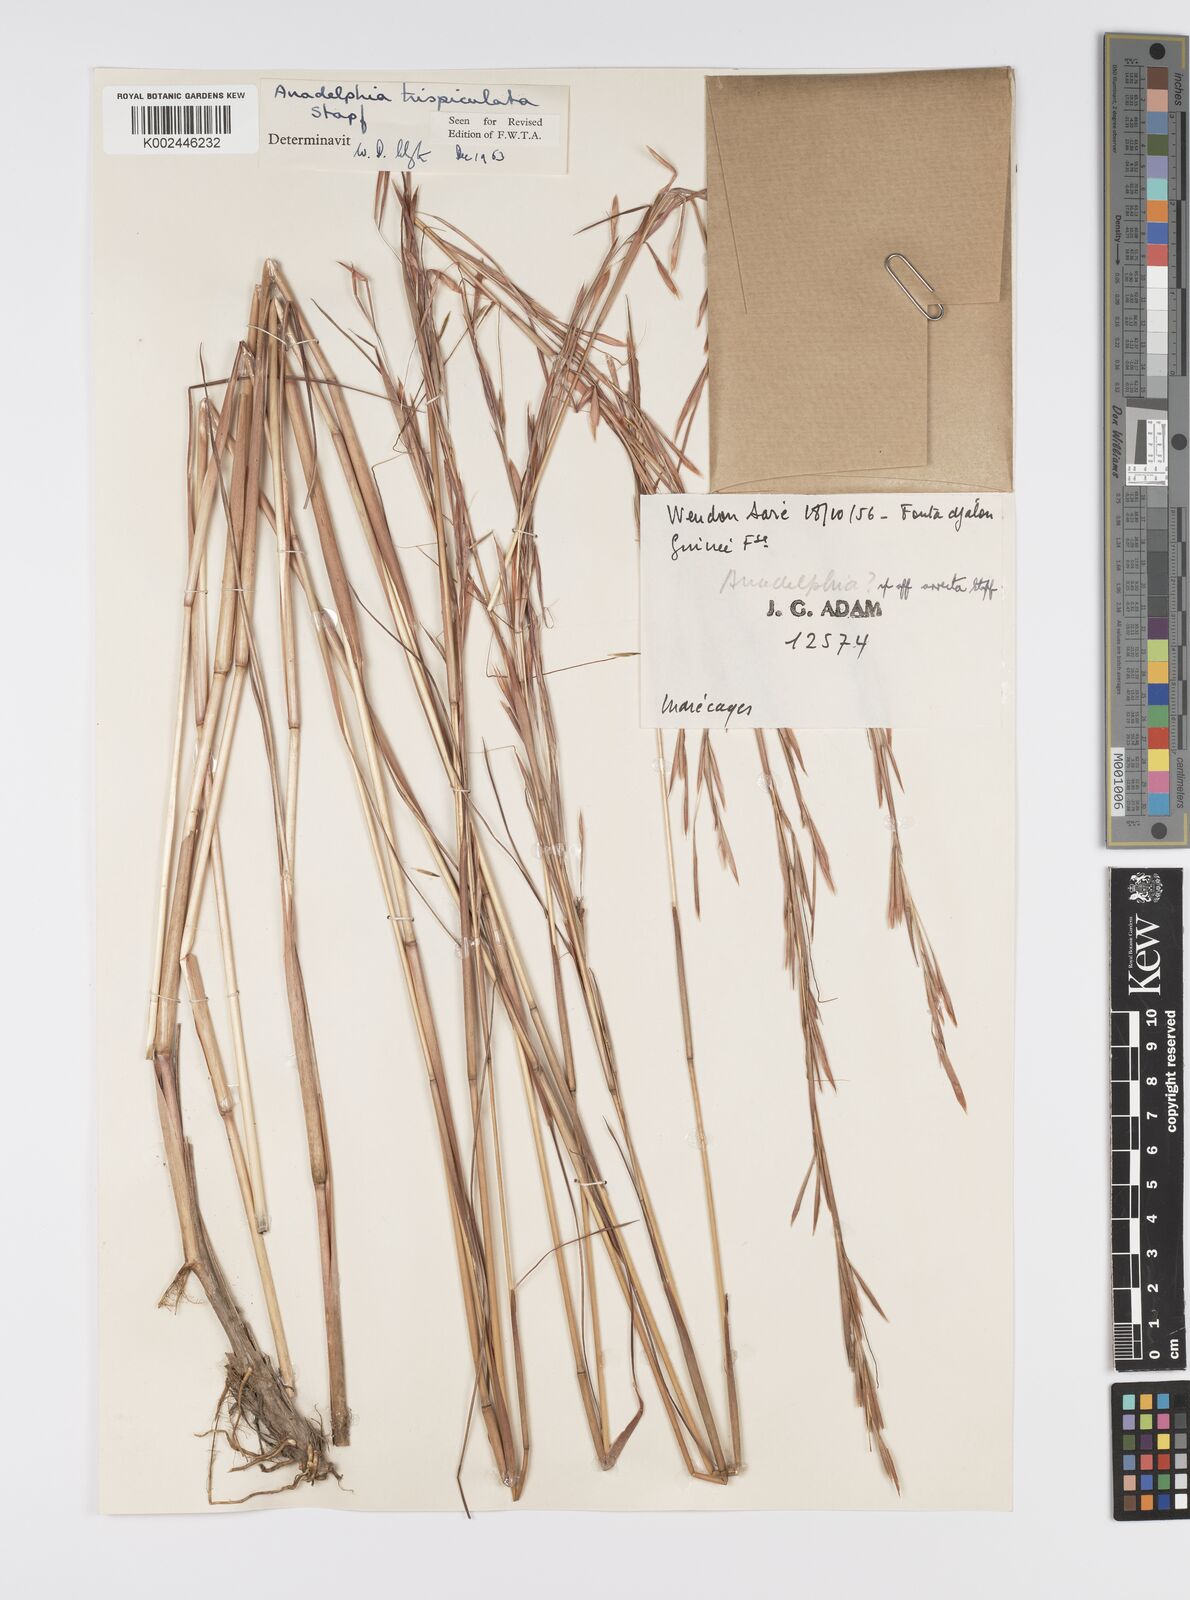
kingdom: Plantae
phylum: Tracheophyta
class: Liliopsida
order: Poales
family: Poaceae
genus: Anadelphia
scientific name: Anadelphia trispiculata
